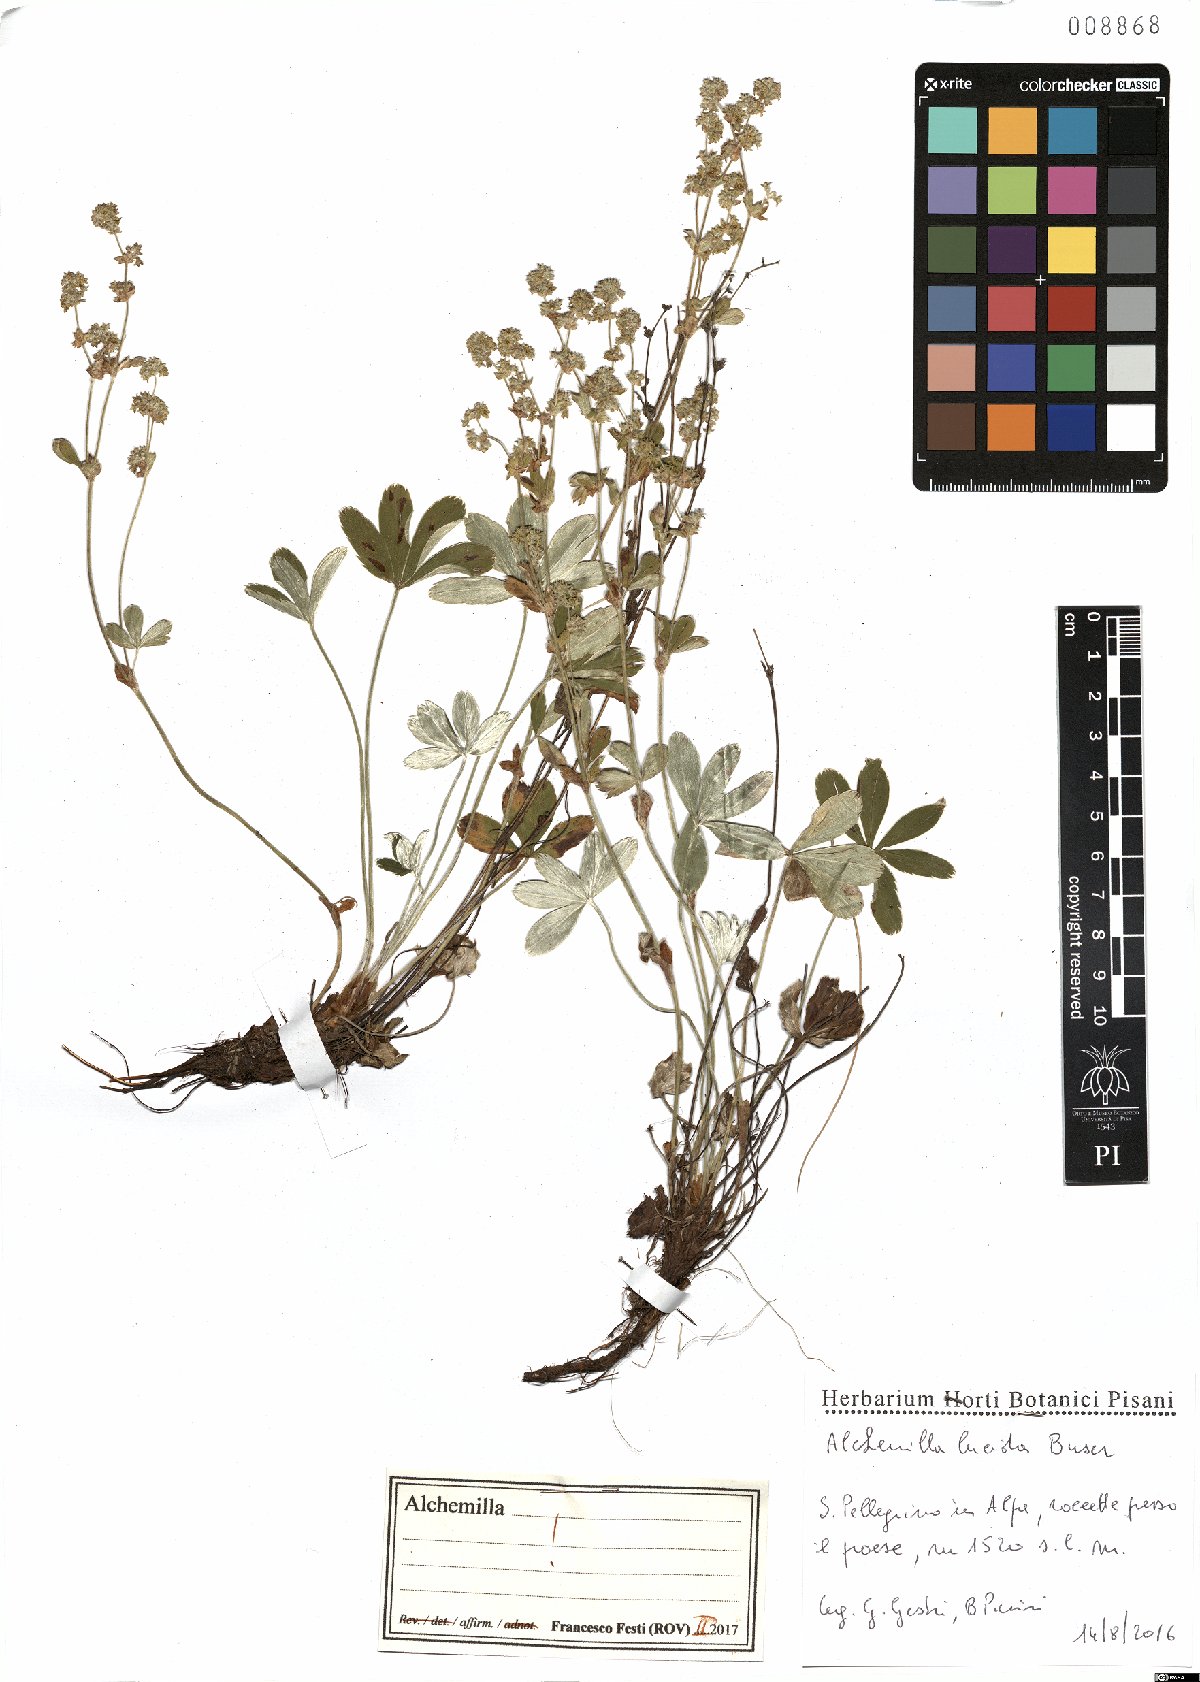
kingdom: Plantae
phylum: Tracheophyta
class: Magnoliopsida
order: Rosales
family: Rosaceae
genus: Alchemilla
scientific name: Alchemilla lucida
